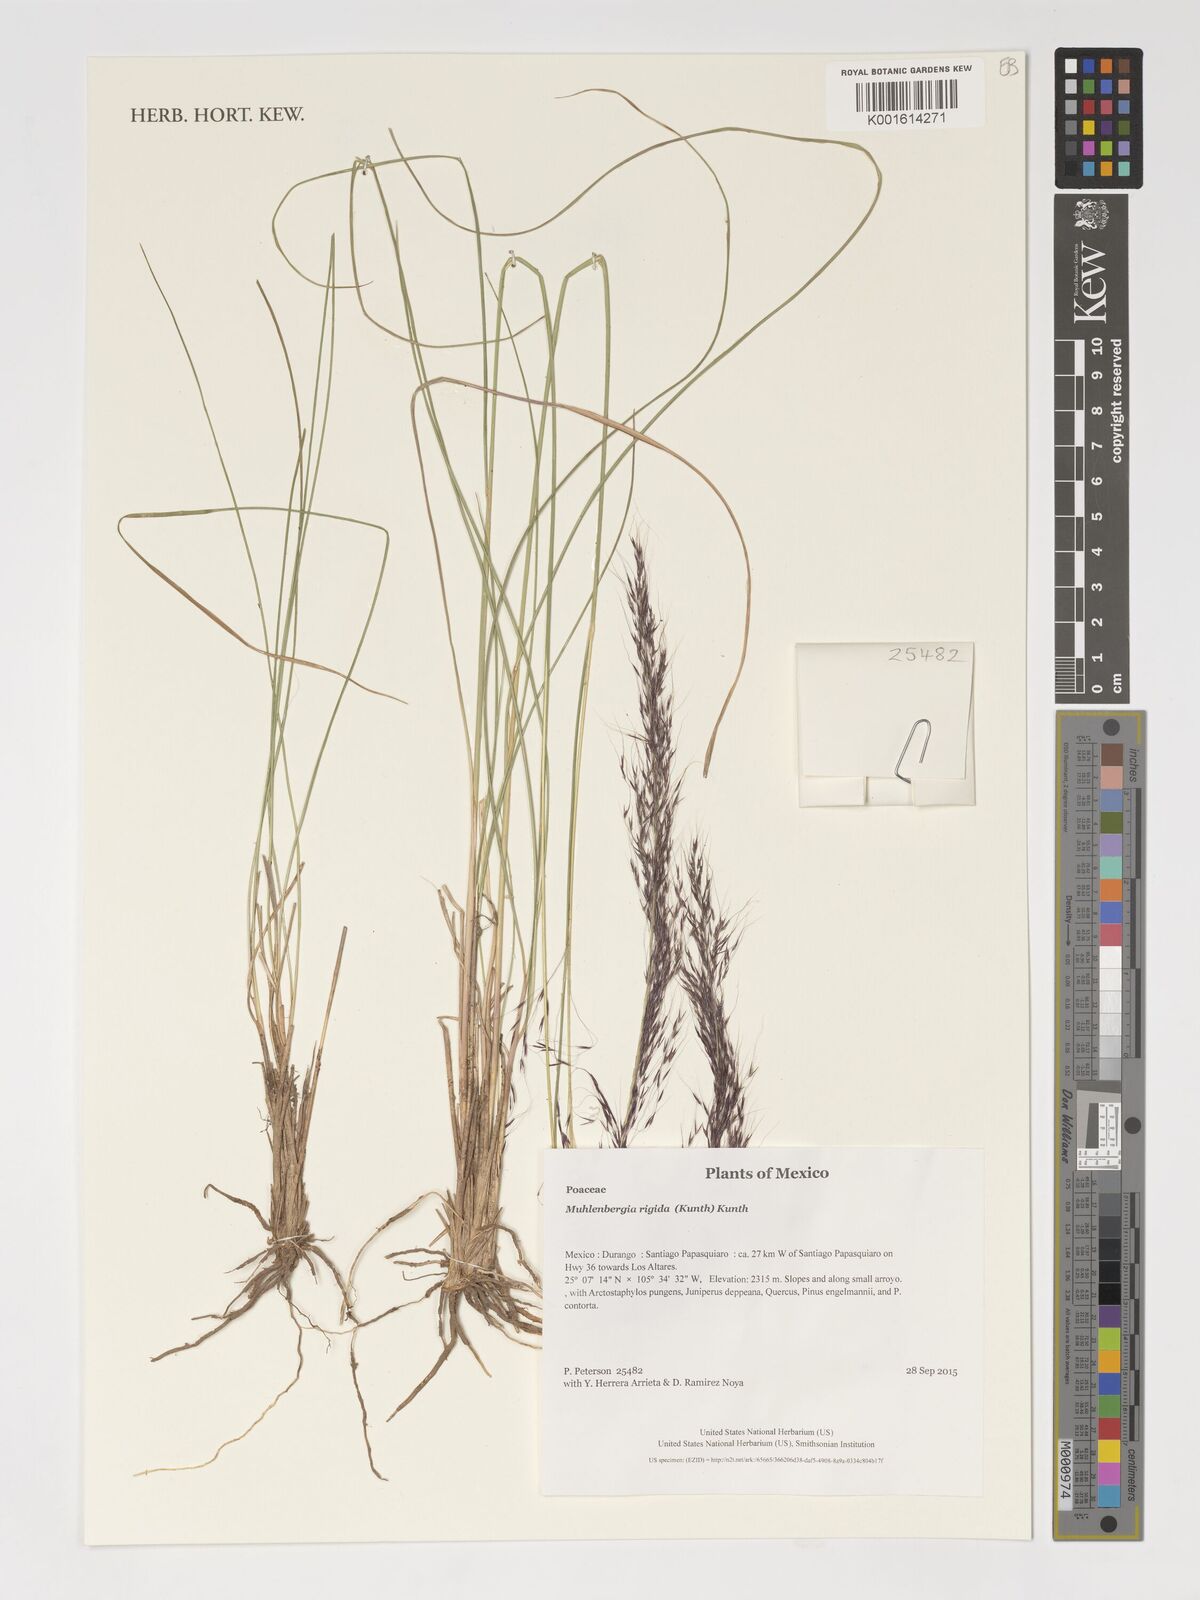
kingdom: Plantae
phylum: Tracheophyta
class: Liliopsida
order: Poales
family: Poaceae
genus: Muhlenbergia
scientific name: Muhlenbergia rigida
